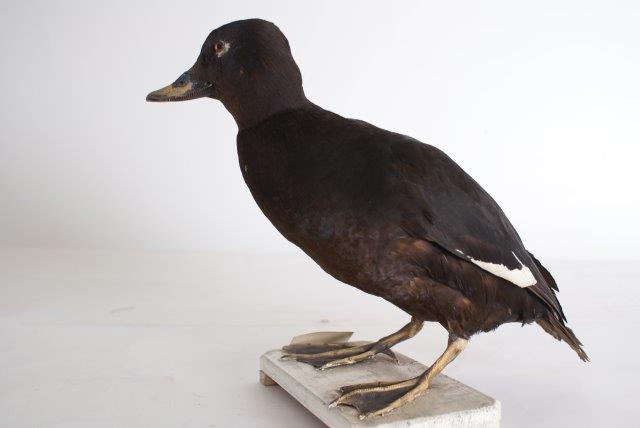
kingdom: Animalia
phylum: Chordata
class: Aves
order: Anseriformes
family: Anatidae
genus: Melanitta
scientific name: Melanitta fusca
